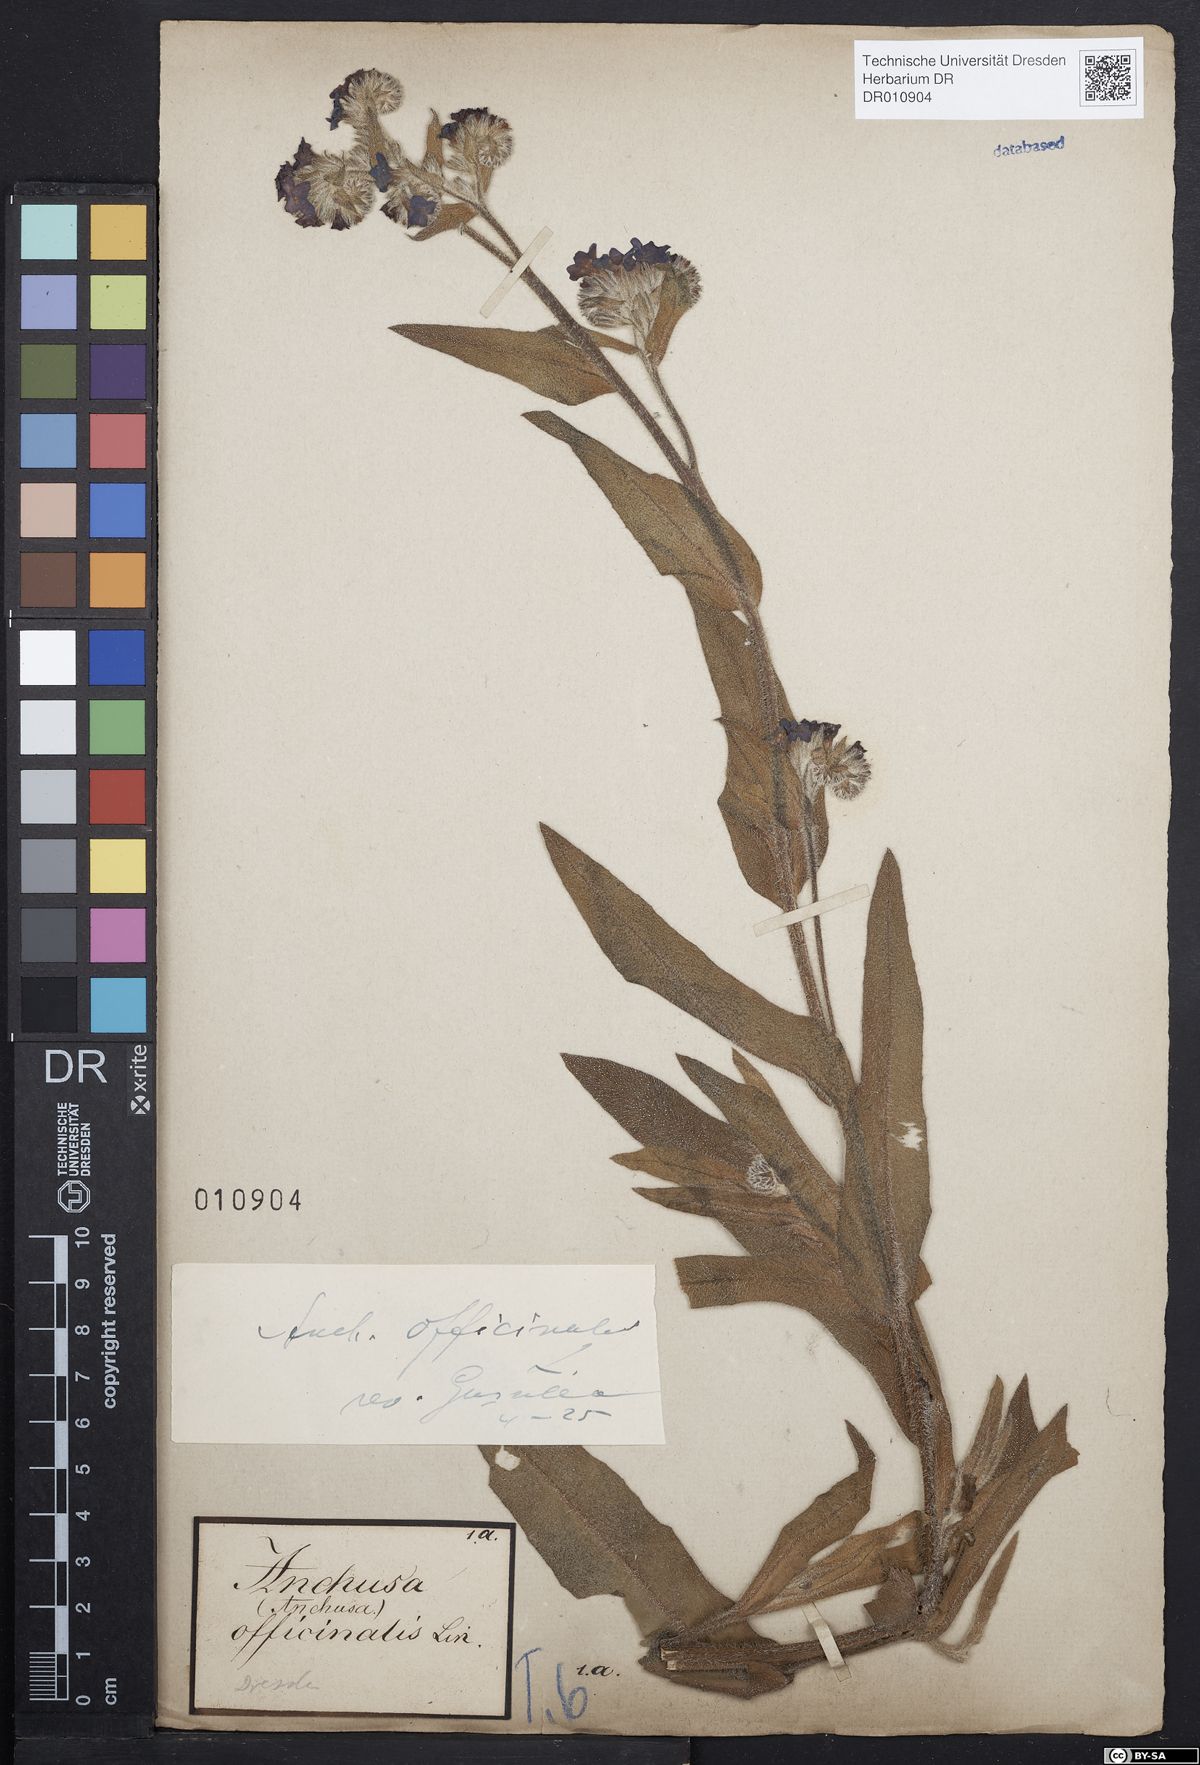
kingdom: Plantae
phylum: Tracheophyta
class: Magnoliopsida
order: Boraginales
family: Boraginaceae
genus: Anchusa
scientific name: Anchusa officinalis
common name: Alkanet
